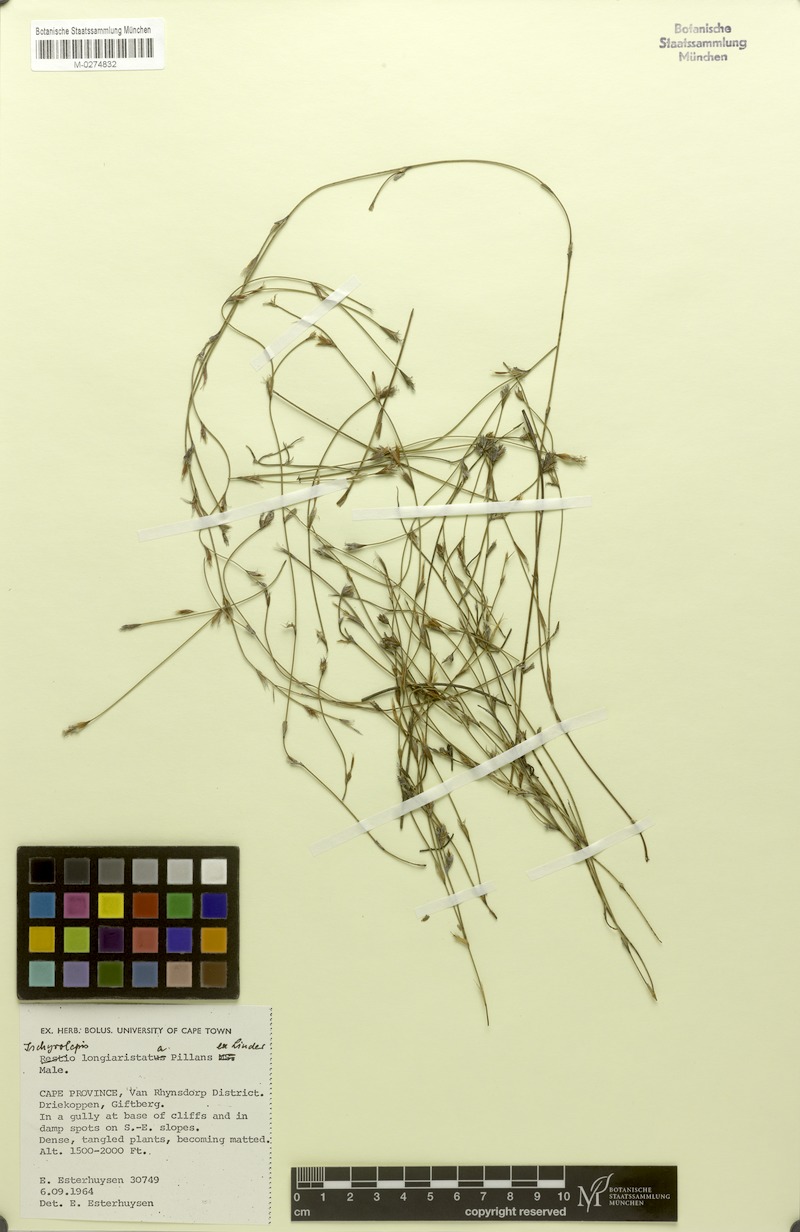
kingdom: Plantae
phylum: Tracheophyta
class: Liliopsida
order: Poales
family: Restionaceae
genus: Restio
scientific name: Restio longiaristatus
